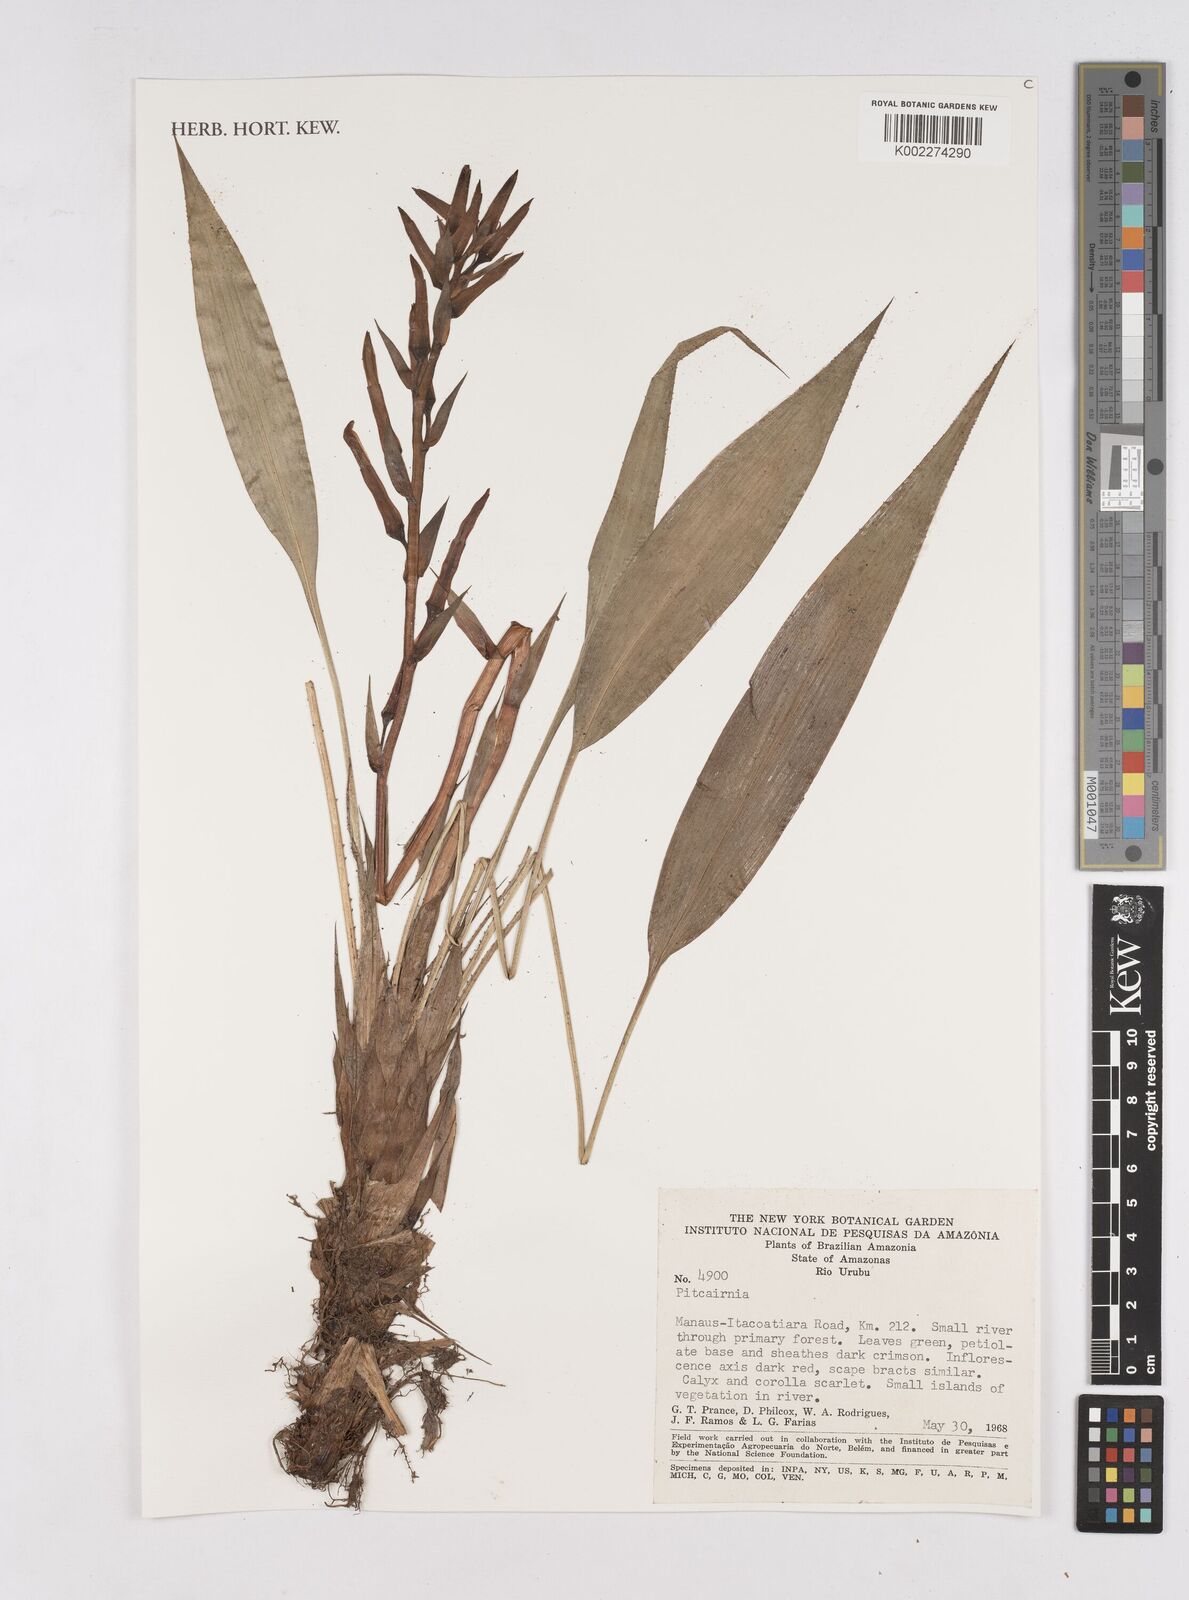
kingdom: Plantae
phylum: Tracheophyta
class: Liliopsida
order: Poales
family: Bromeliaceae
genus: Pitcairnia
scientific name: Pitcairnia
